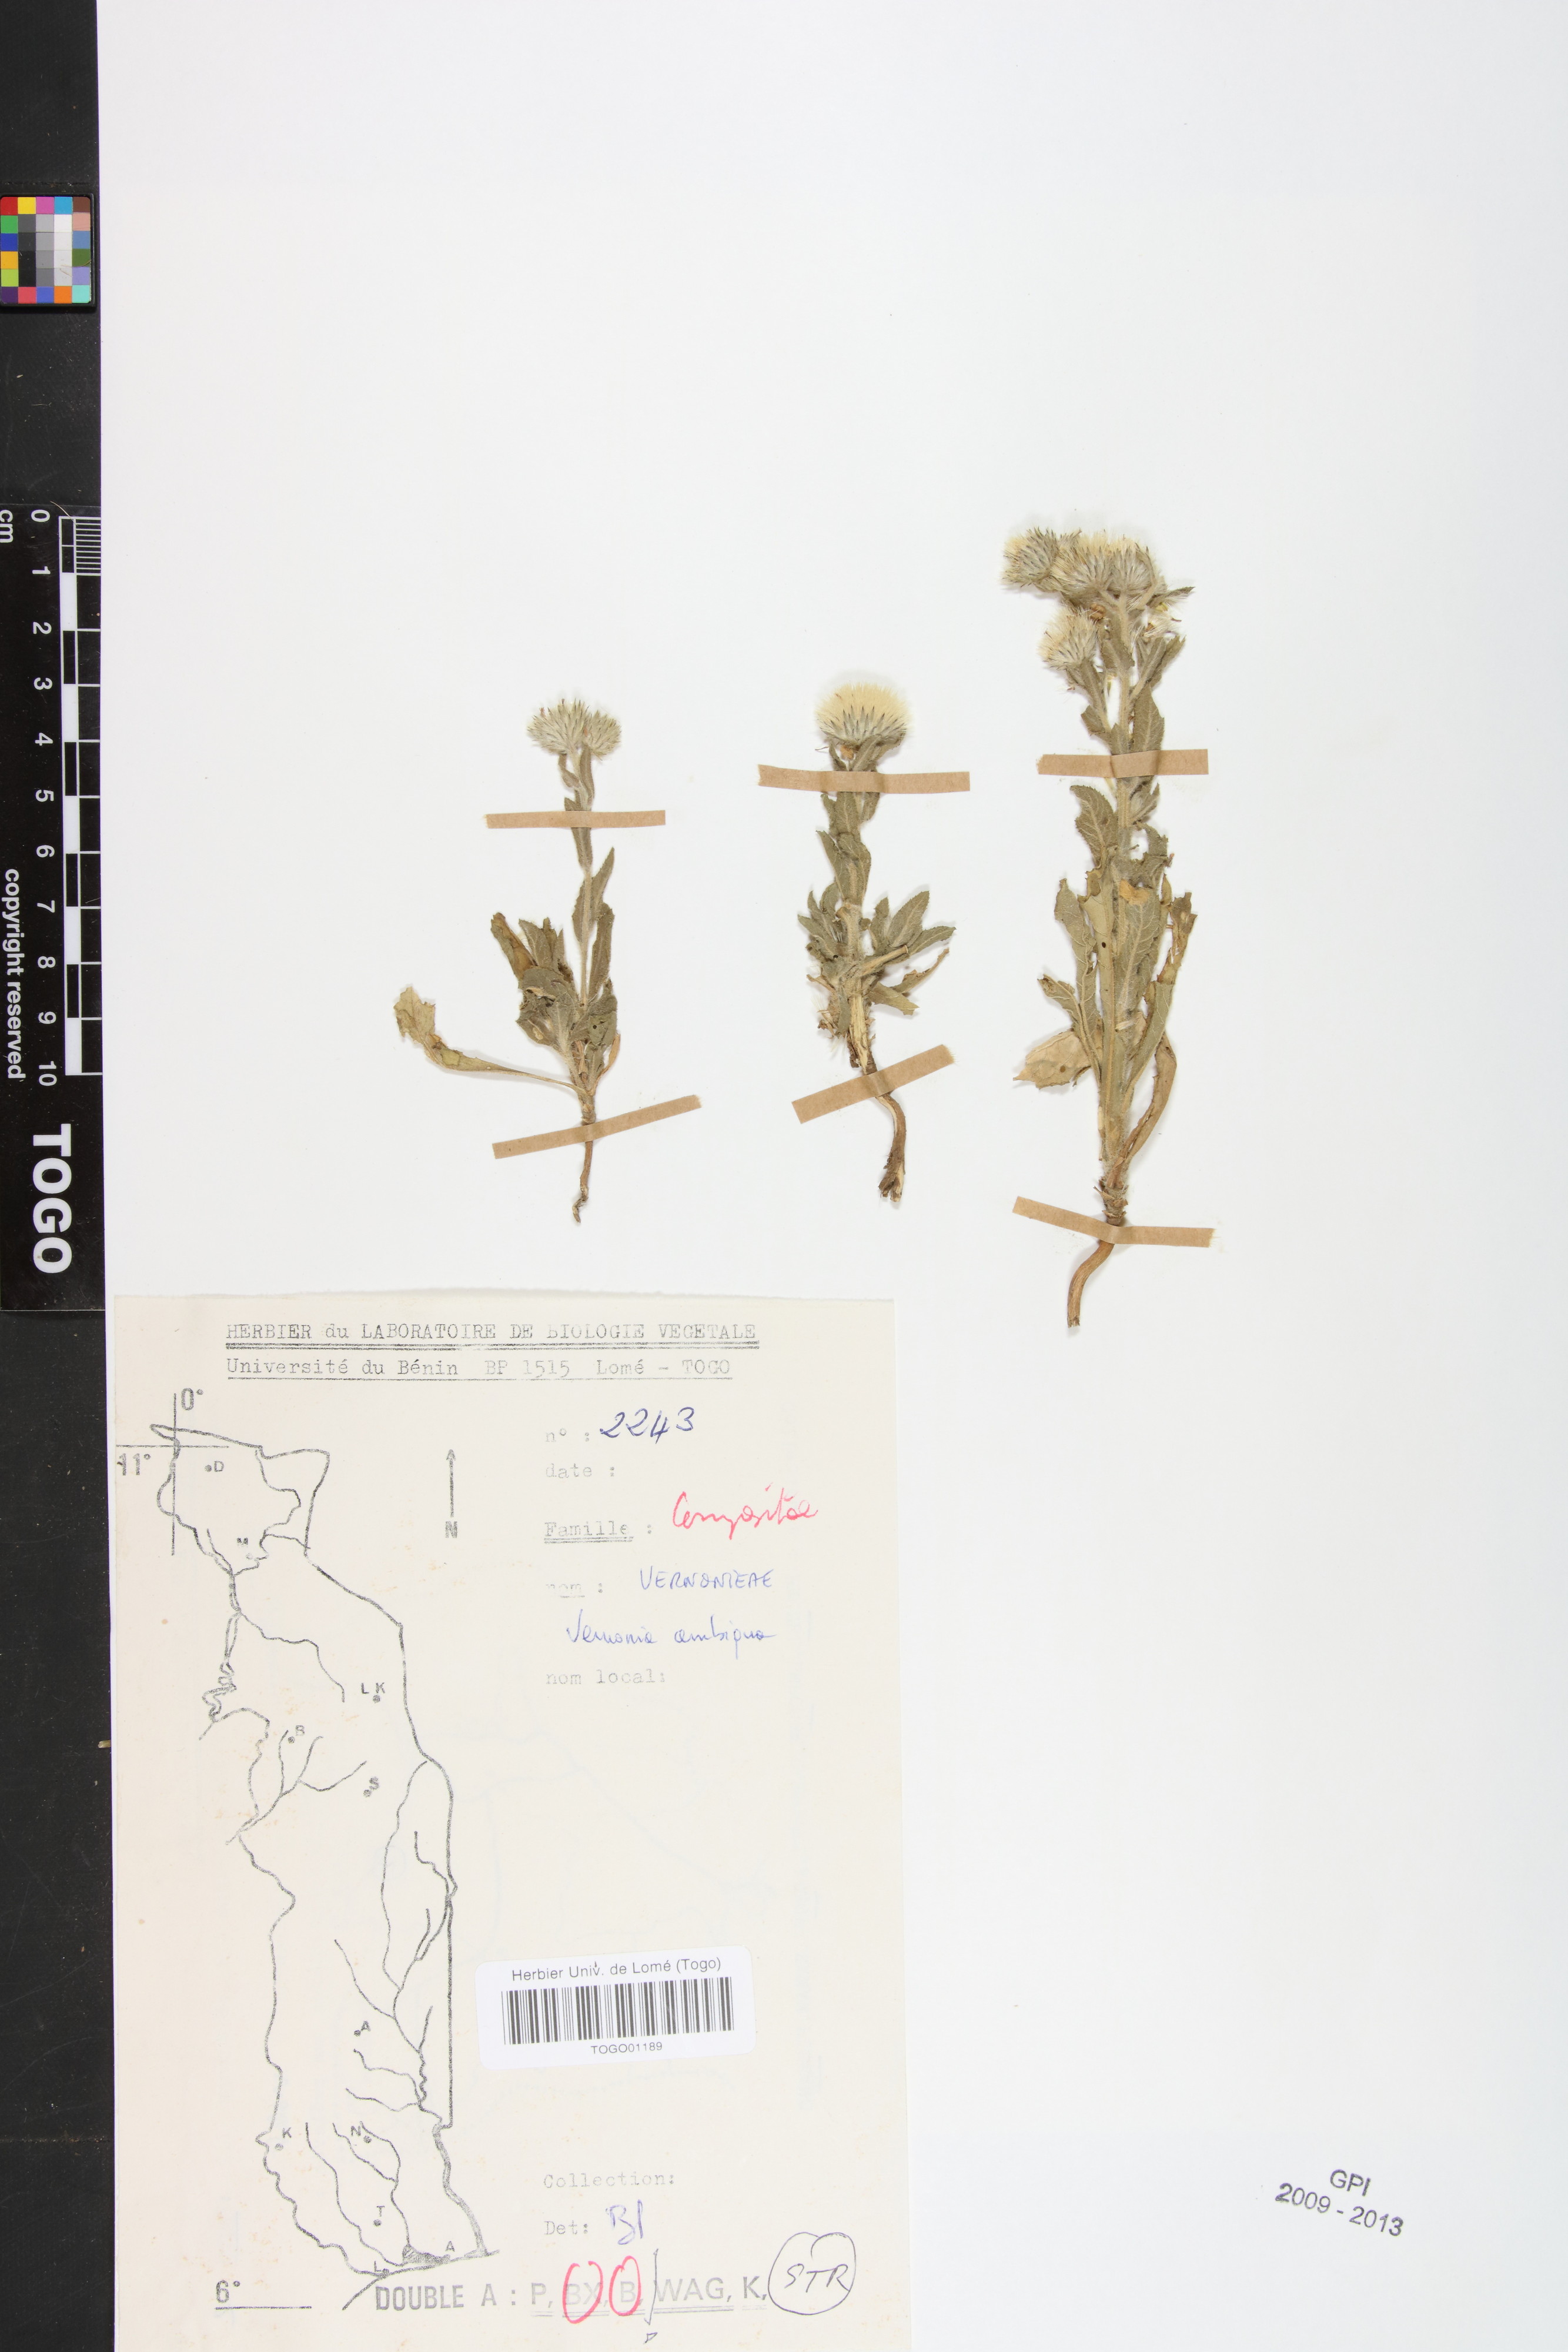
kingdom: Plantae
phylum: Tracheophyta
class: Magnoliopsida
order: Asterales
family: Asteraceae
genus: Vernoniastrum
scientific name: Vernoniastrum ambiguum
